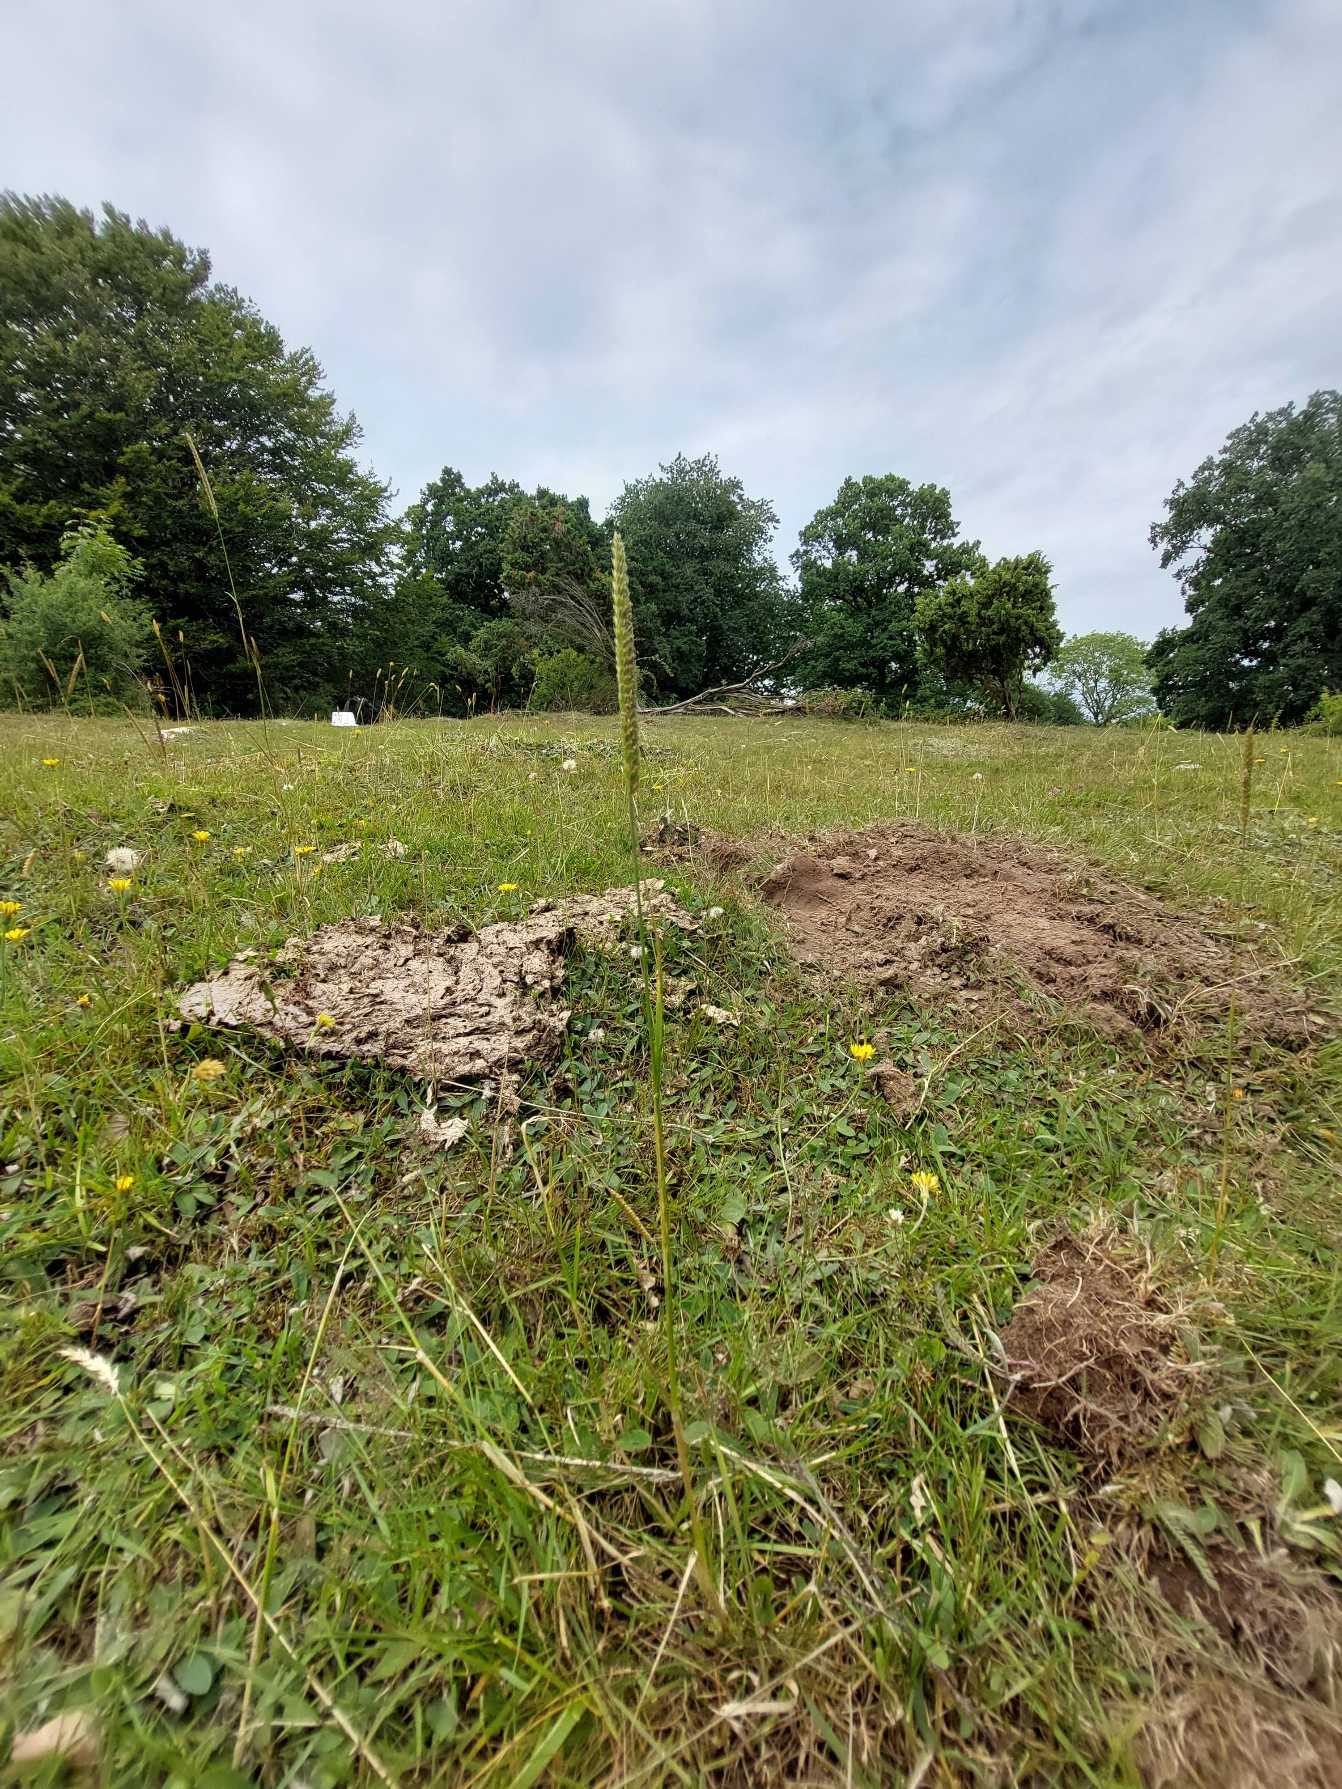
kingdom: Plantae
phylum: Tracheophyta
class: Liliopsida
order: Poales
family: Poaceae
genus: Cynosurus
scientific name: Cynosurus cristatus
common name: Kamgræs
